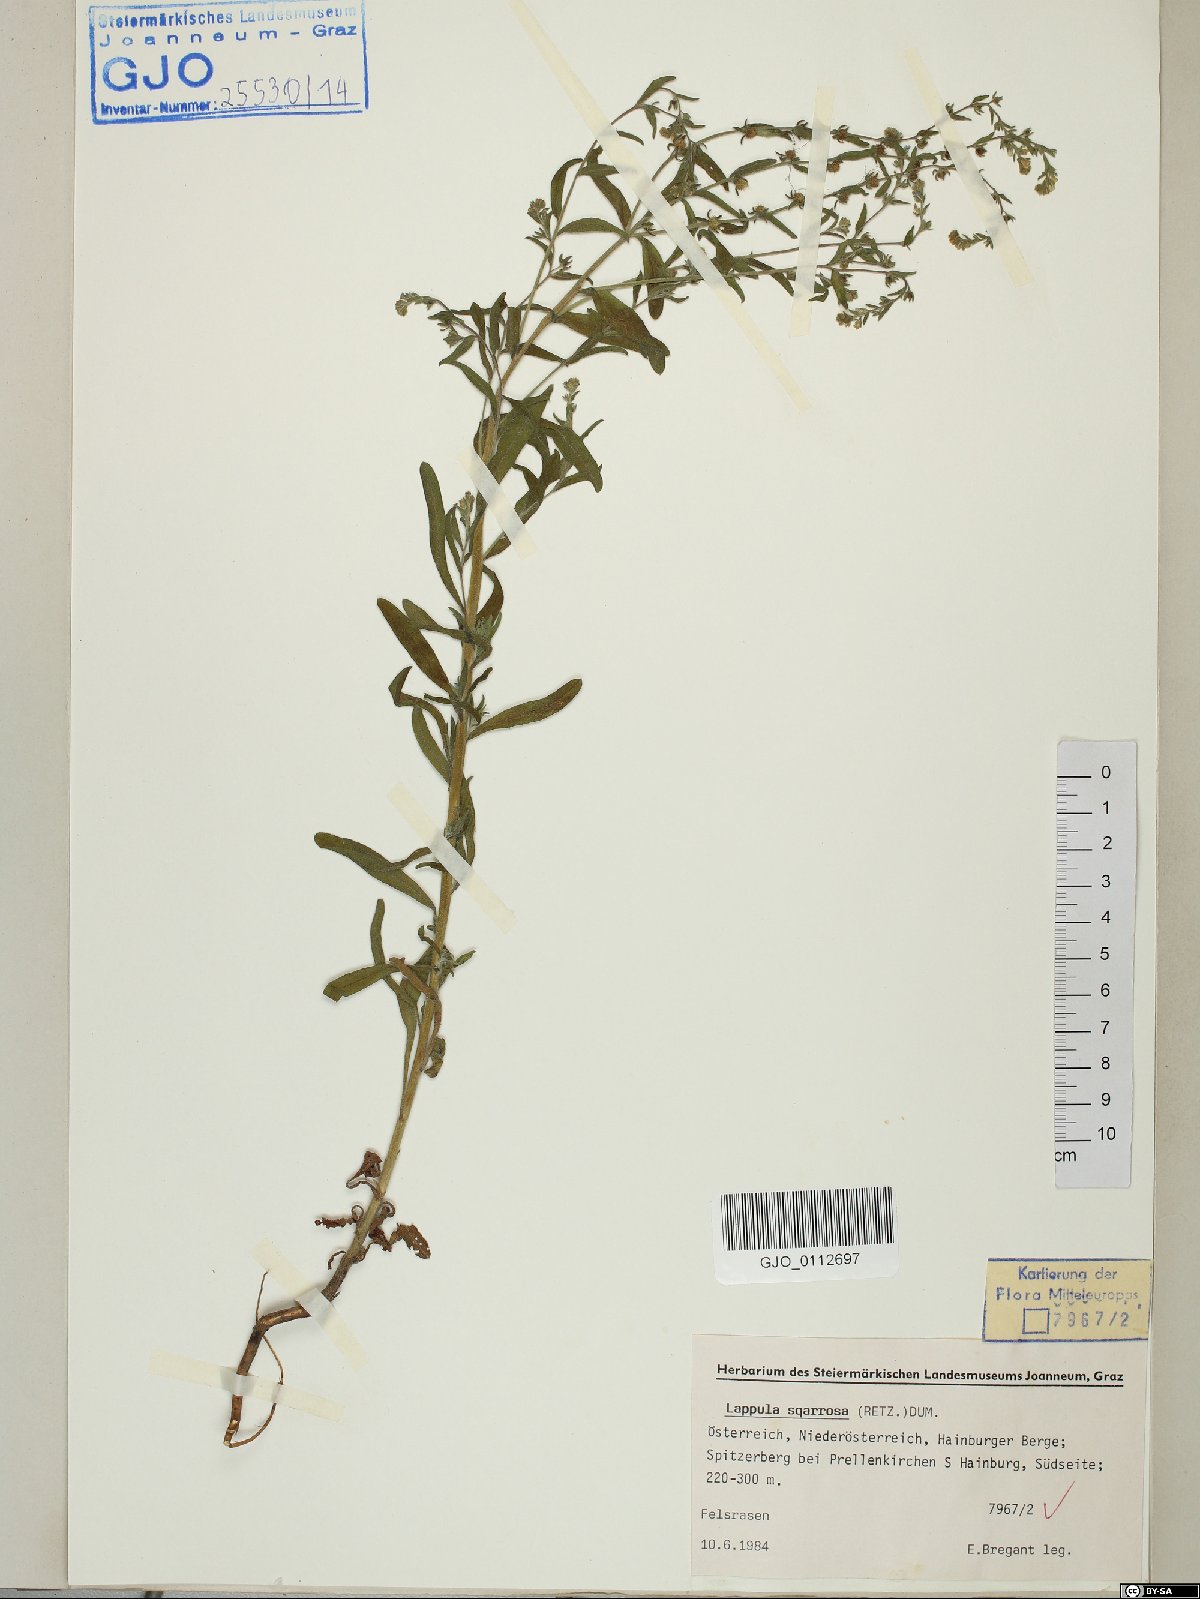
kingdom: Plantae
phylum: Tracheophyta
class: Magnoliopsida
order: Boraginales
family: Boraginaceae
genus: Lappula
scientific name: Lappula squarrosa
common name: European stickseed
